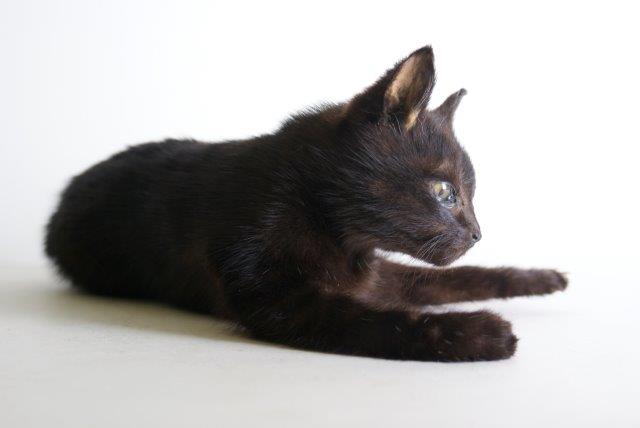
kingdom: Animalia
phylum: Chordata
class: Mammalia
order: Carnivora
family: Felidae
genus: Felis
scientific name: Felis catus
